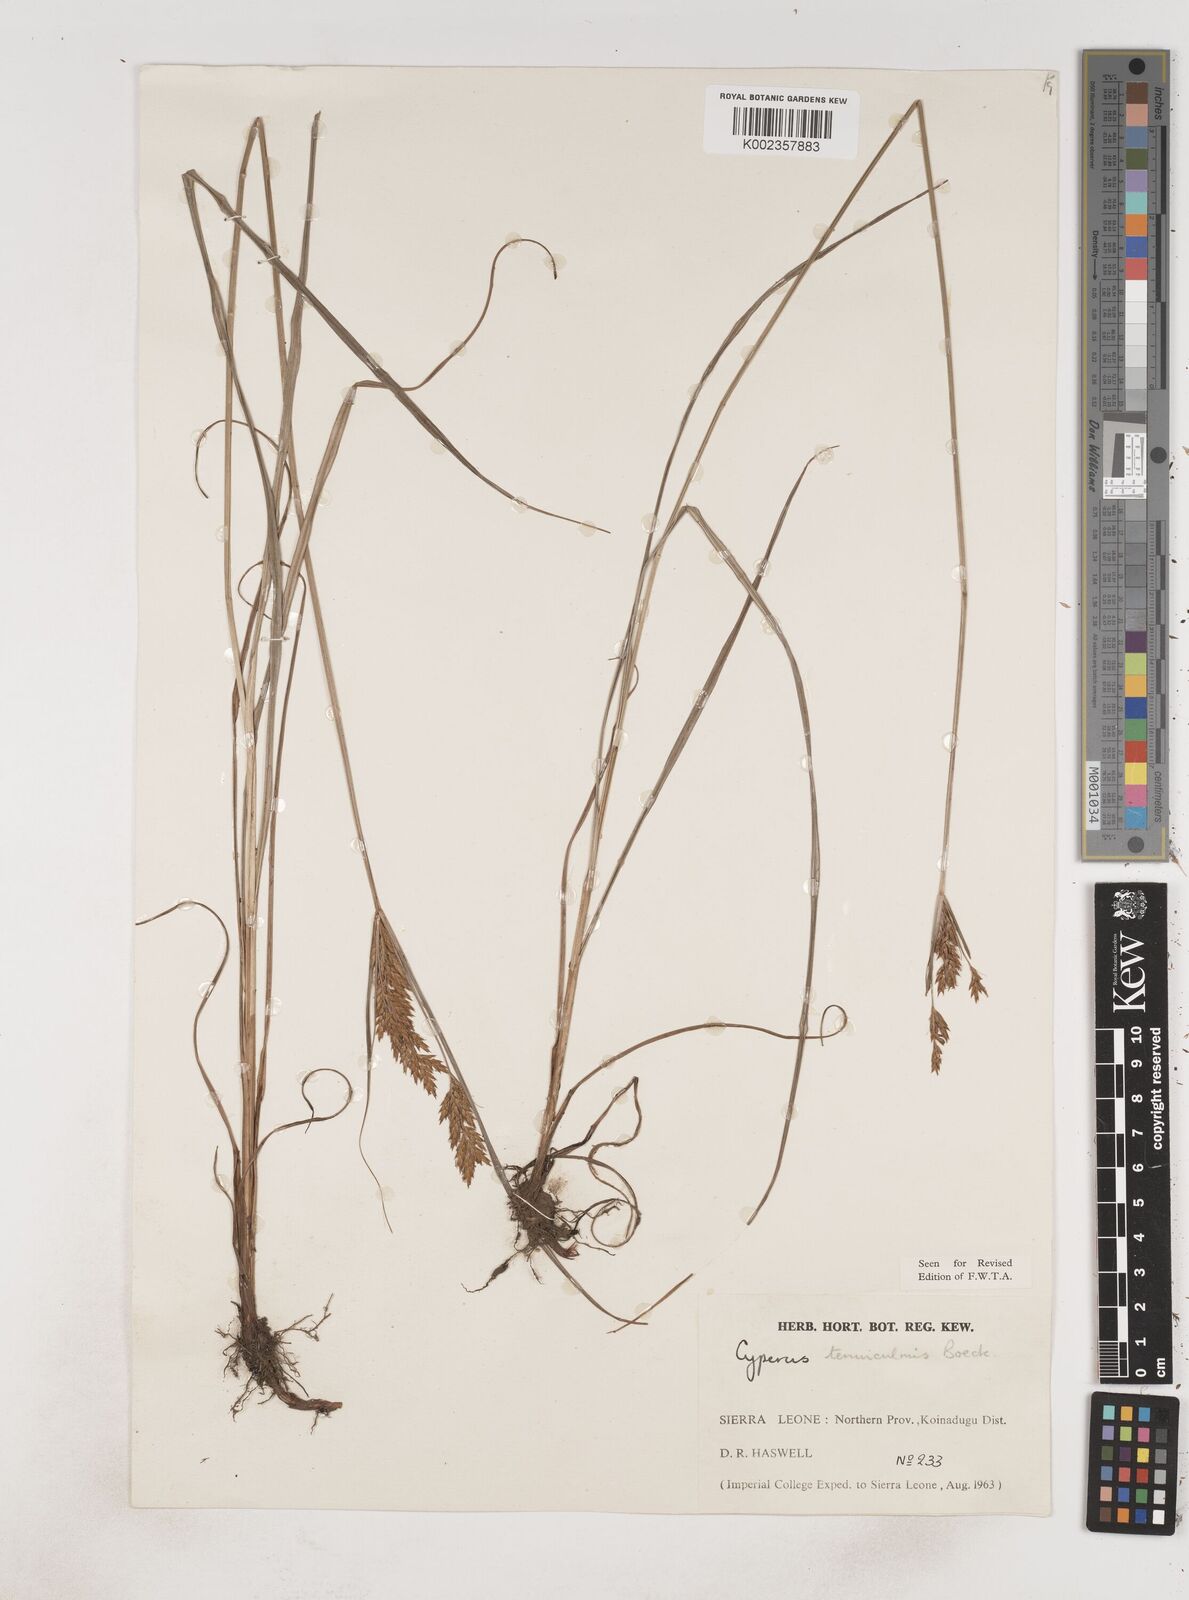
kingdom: Plantae
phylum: Tracheophyta
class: Liliopsida
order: Poales
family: Cyperaceae
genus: Cyperus
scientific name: Cyperus
